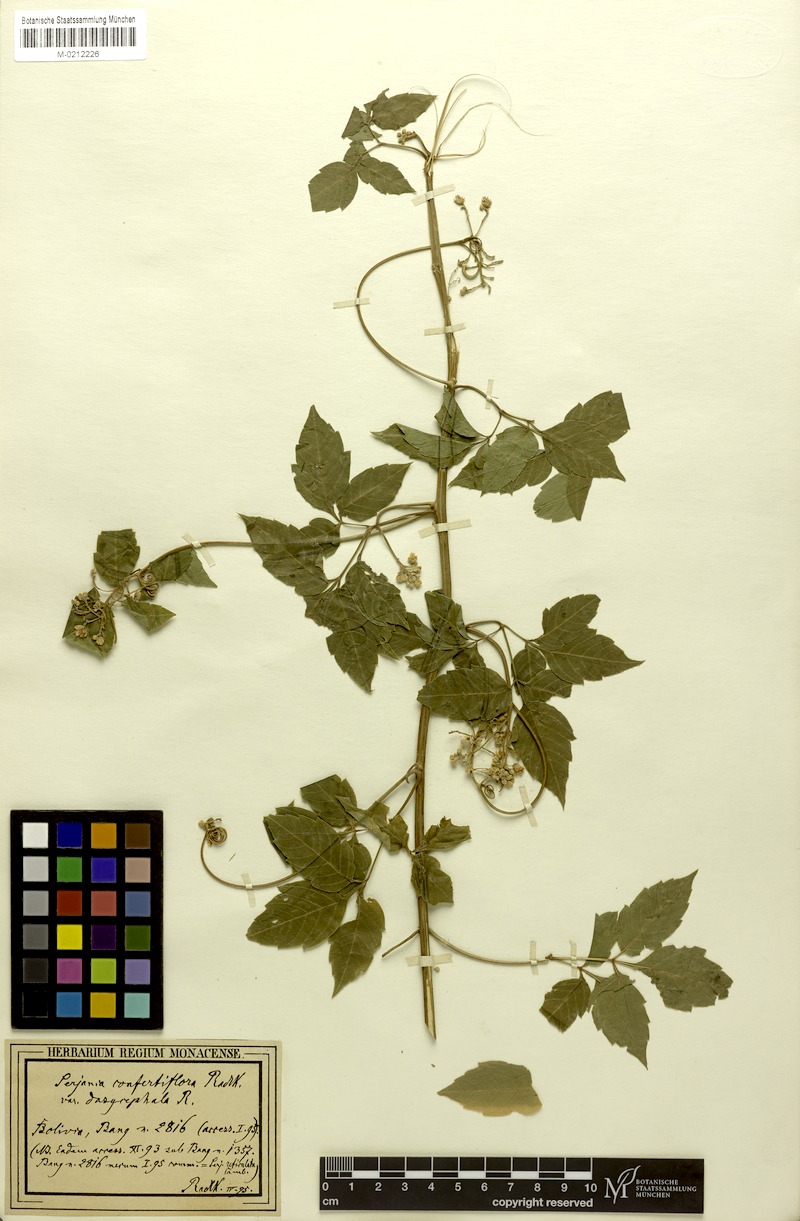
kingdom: Plantae
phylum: Tracheophyta
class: Magnoliopsida
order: Sapindales
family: Sapindaceae
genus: Serjania
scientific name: Serjania confertiflora
